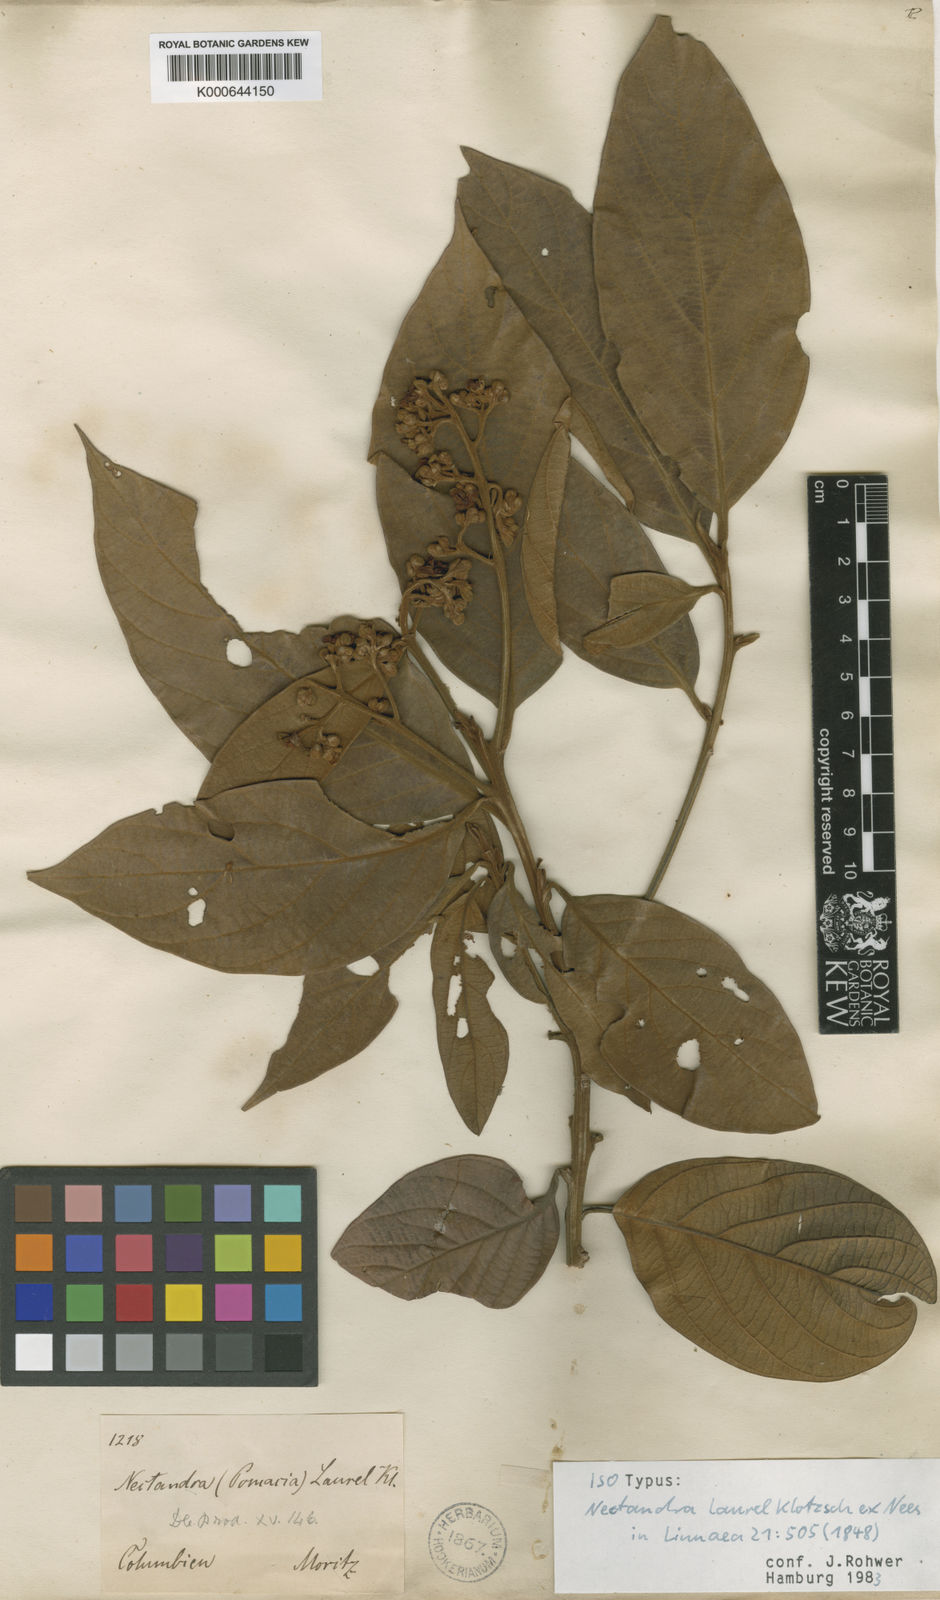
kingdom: Plantae
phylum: Tracheophyta
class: Magnoliopsida
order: Laurales
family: Lauraceae
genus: Nectandra
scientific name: Nectandra laurel
